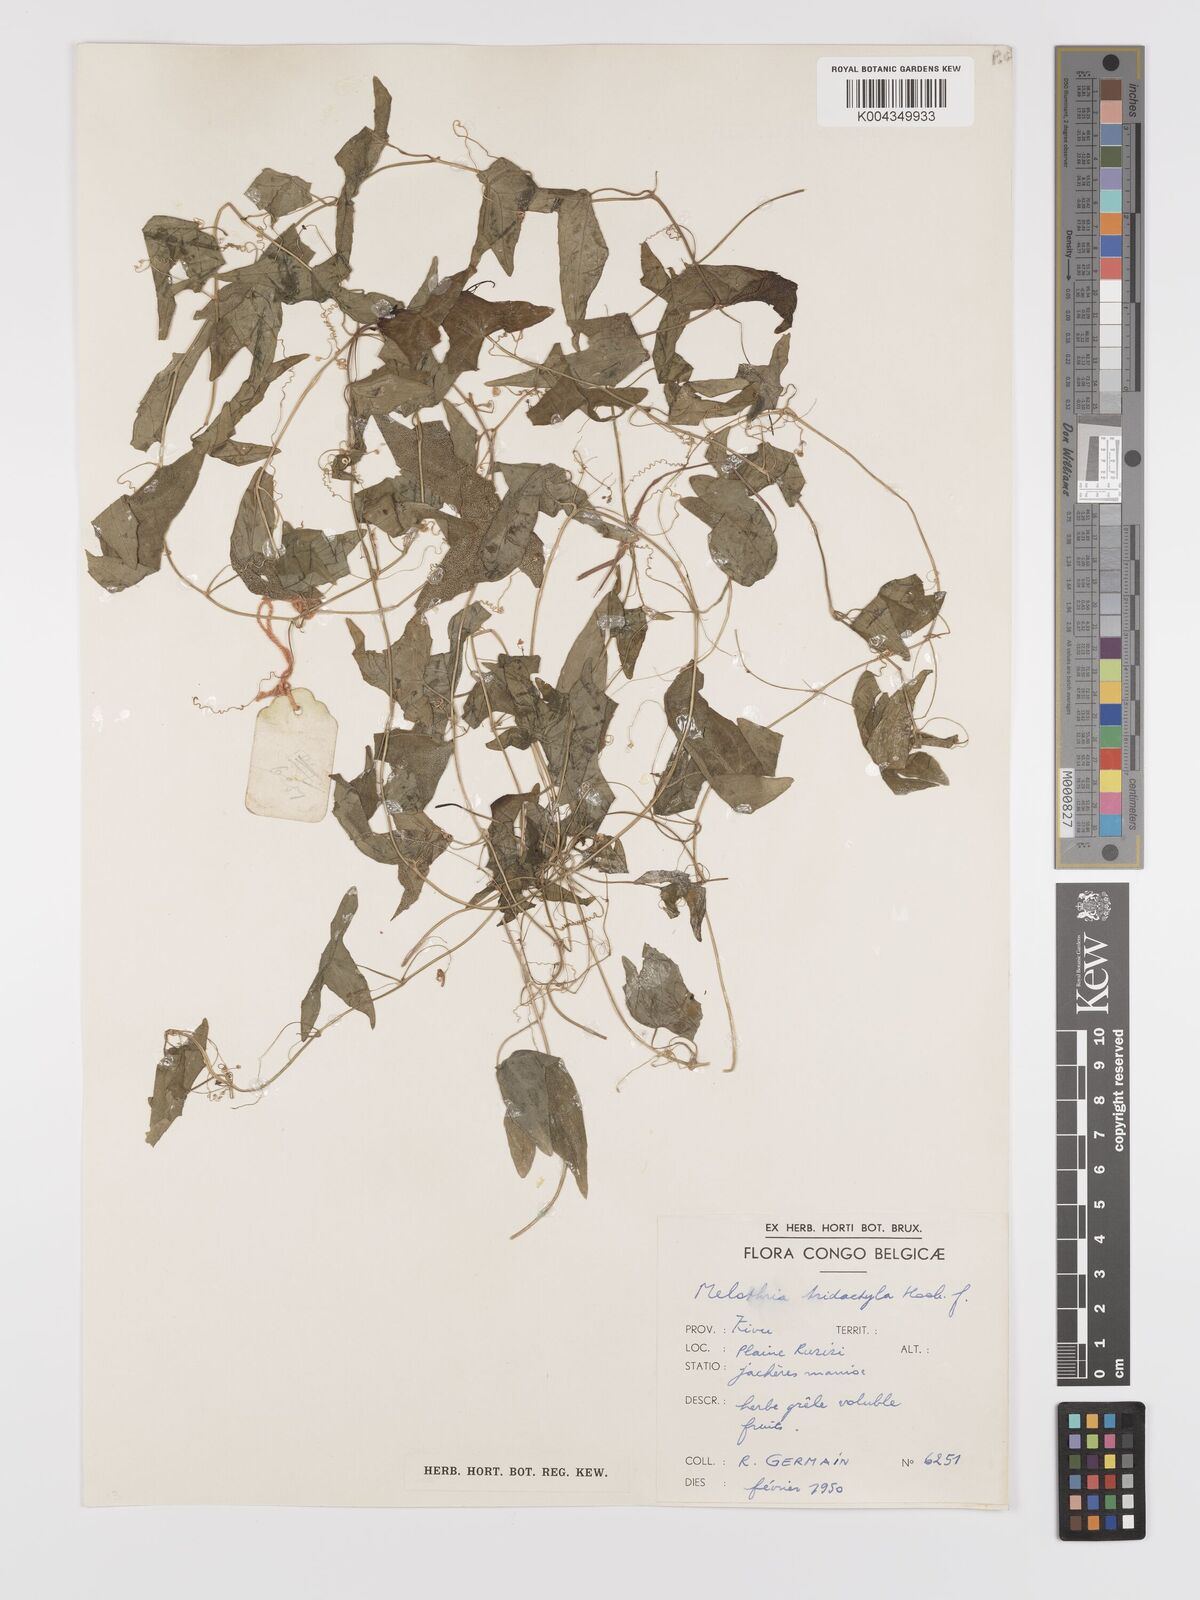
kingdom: Plantae
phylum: Tracheophyta
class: Magnoliopsida
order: Cucurbitales
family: Cucurbitaceae
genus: Zehneria
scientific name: Zehneria thwaitesii
